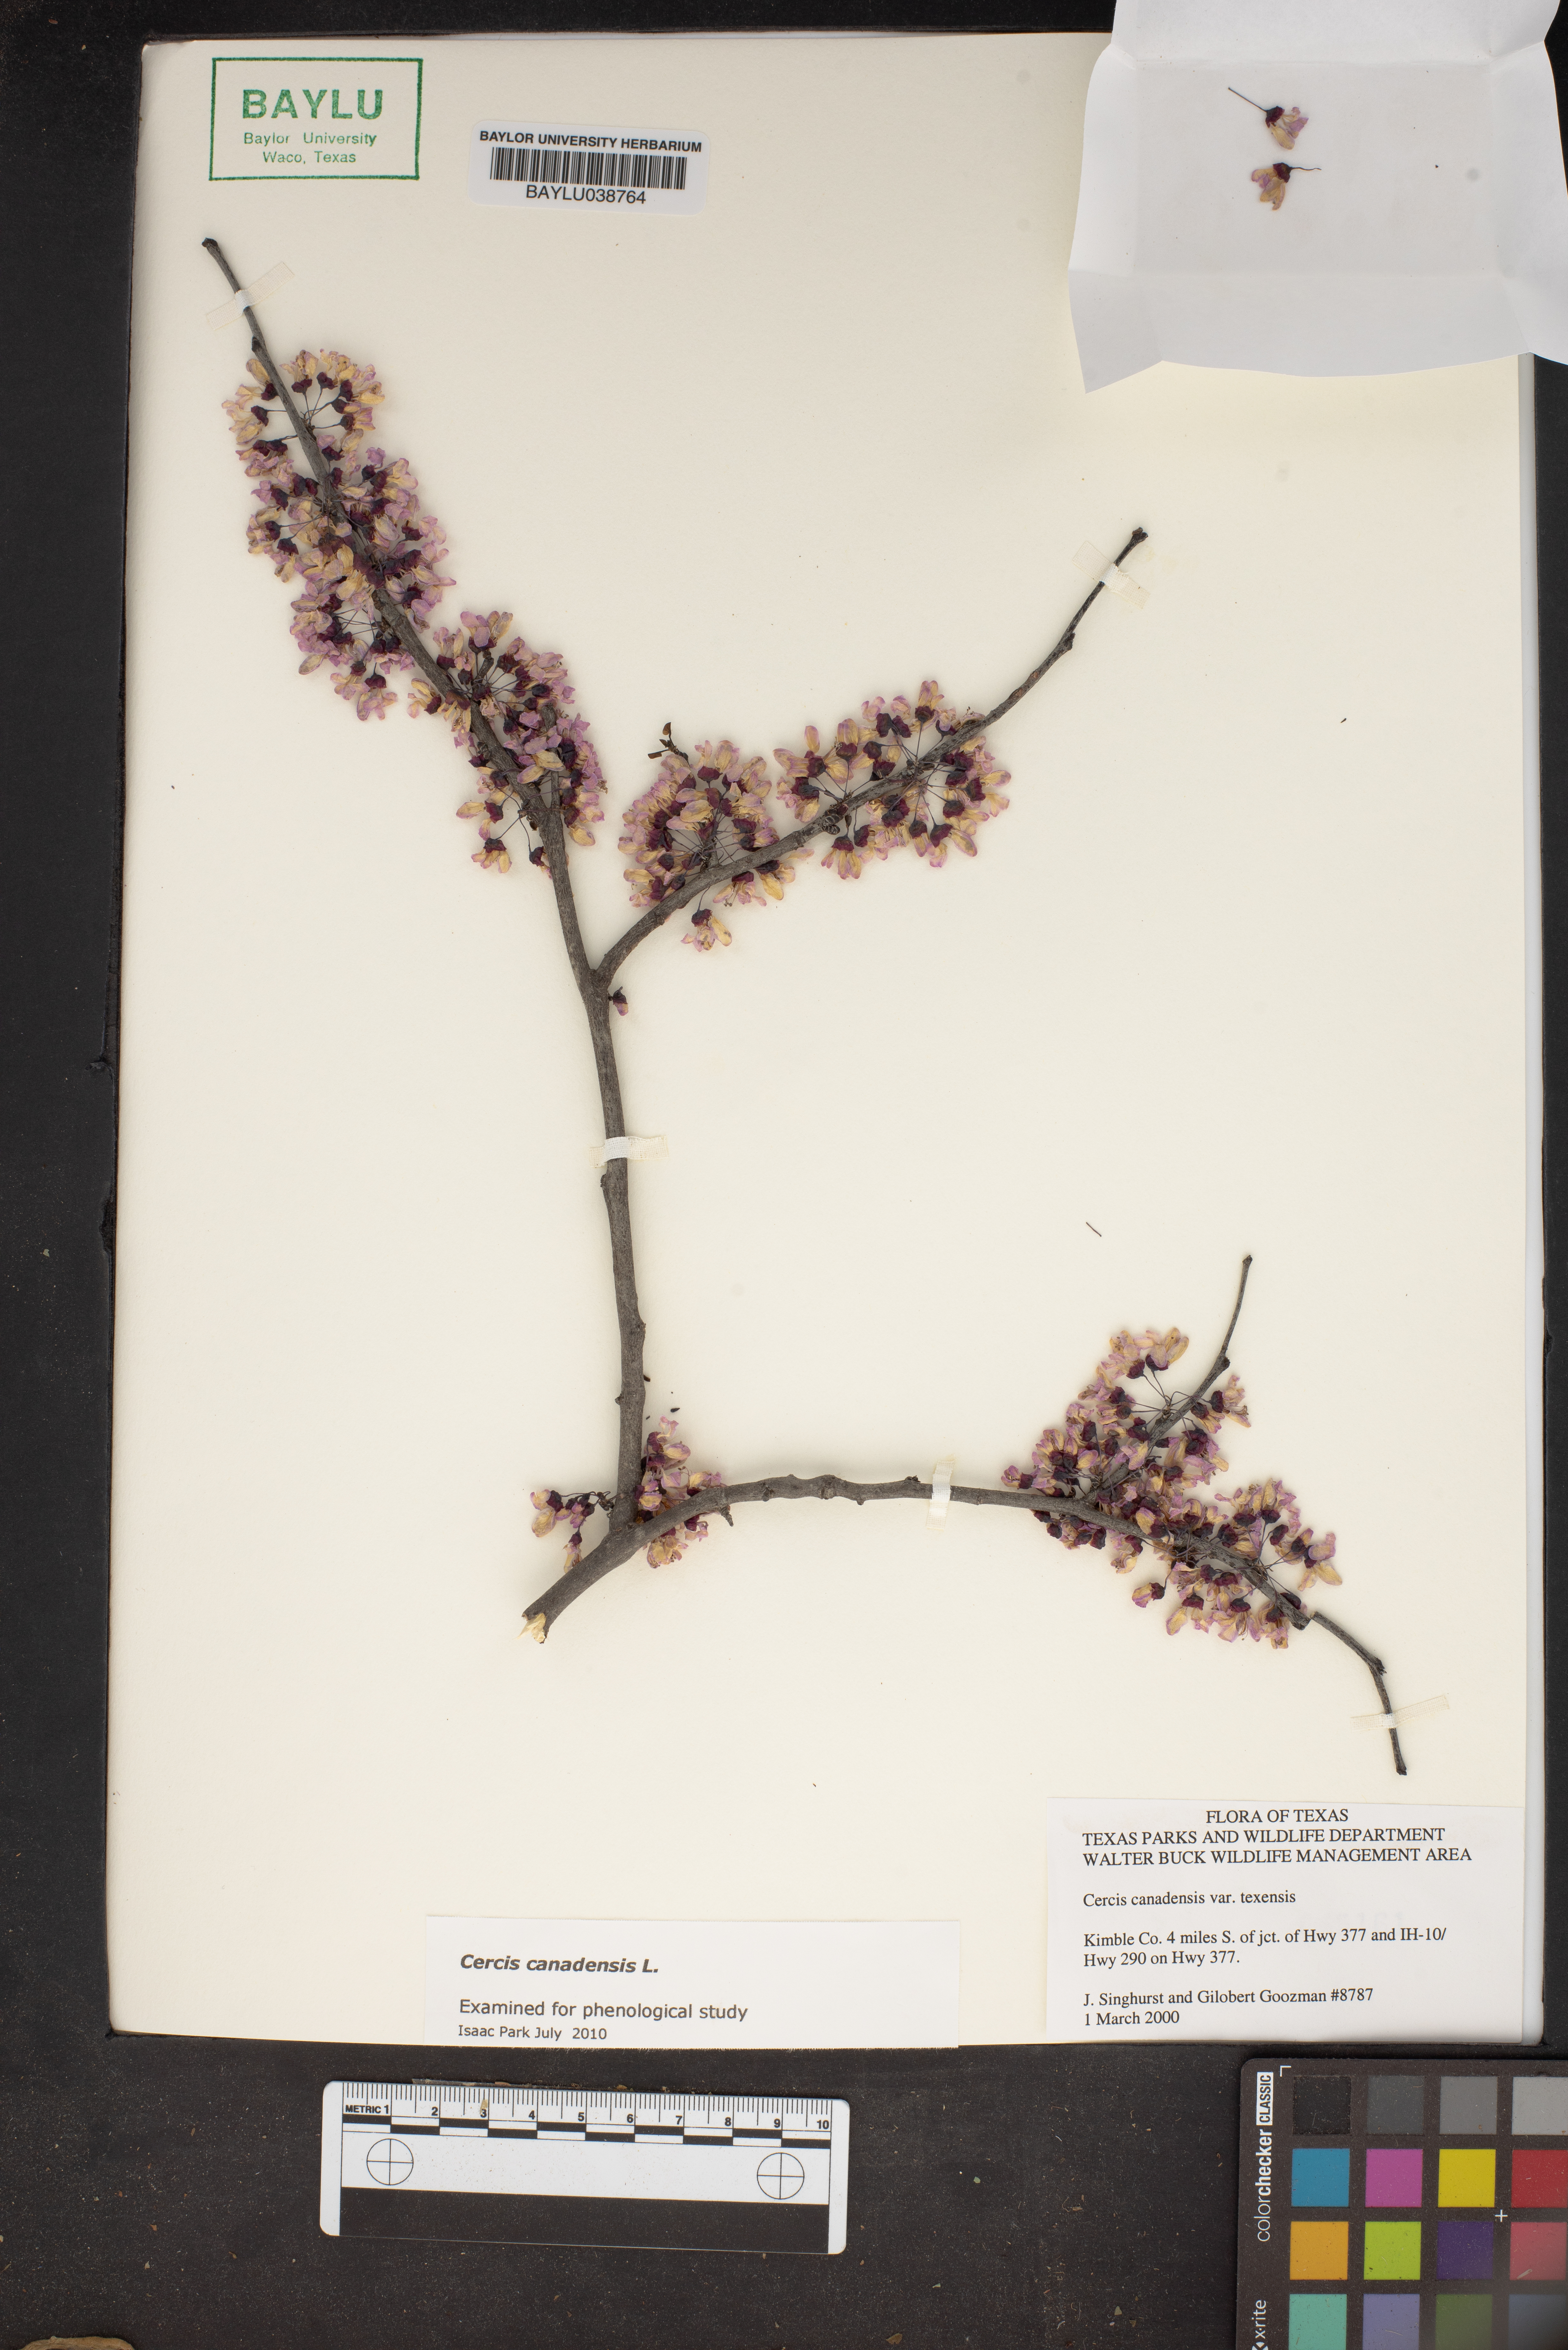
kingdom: Plantae
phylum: Tracheophyta
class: Magnoliopsida
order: Fabales
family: Fabaceae
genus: Cercis
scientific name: Cercis canadensis
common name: Eastern redbud
